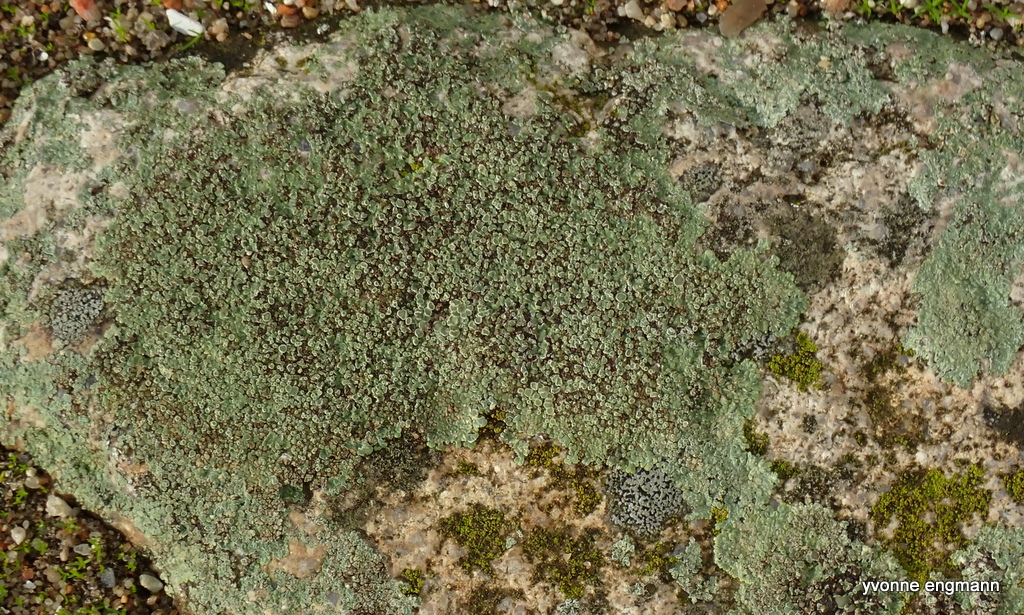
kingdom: Fungi
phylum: Ascomycota
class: Lecanoromycetes
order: Lecanorales
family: Lecanoraceae
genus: Protoparmeliopsis
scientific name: Protoparmeliopsis muralis
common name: randfliget kantskivelav
